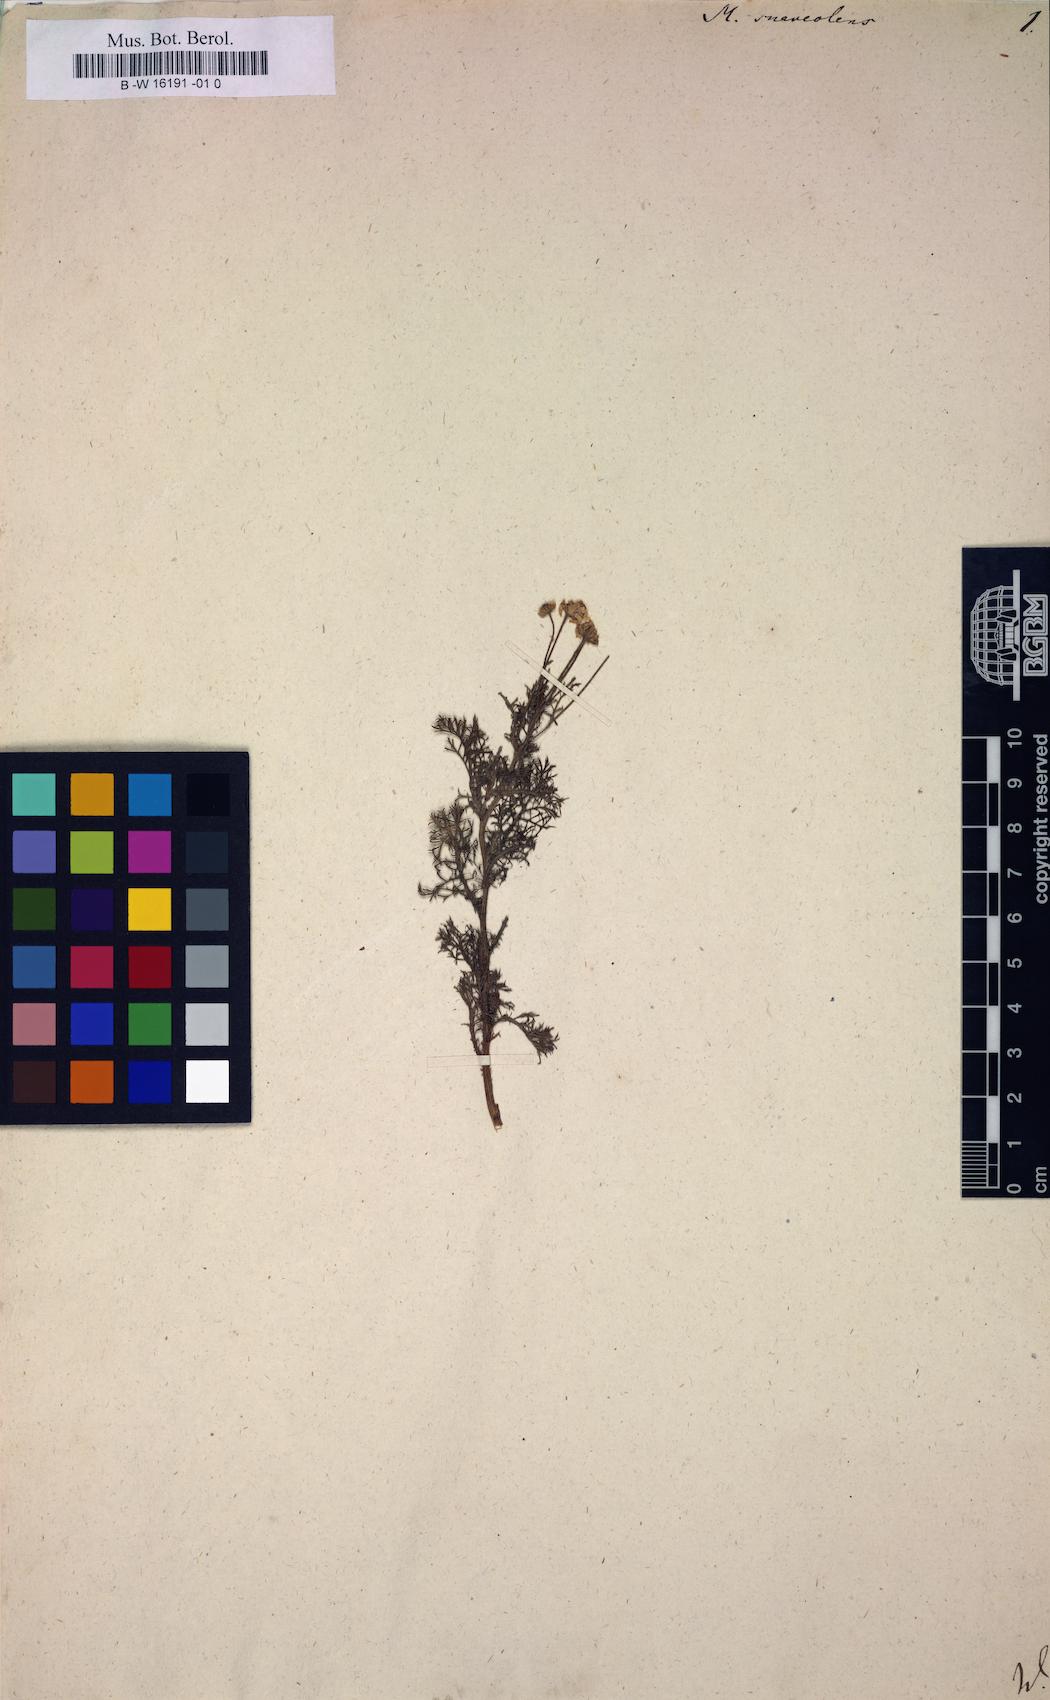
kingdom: Plantae
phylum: Tracheophyta
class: Magnoliopsida
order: Asterales
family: Asteraceae
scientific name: Asteraceae
